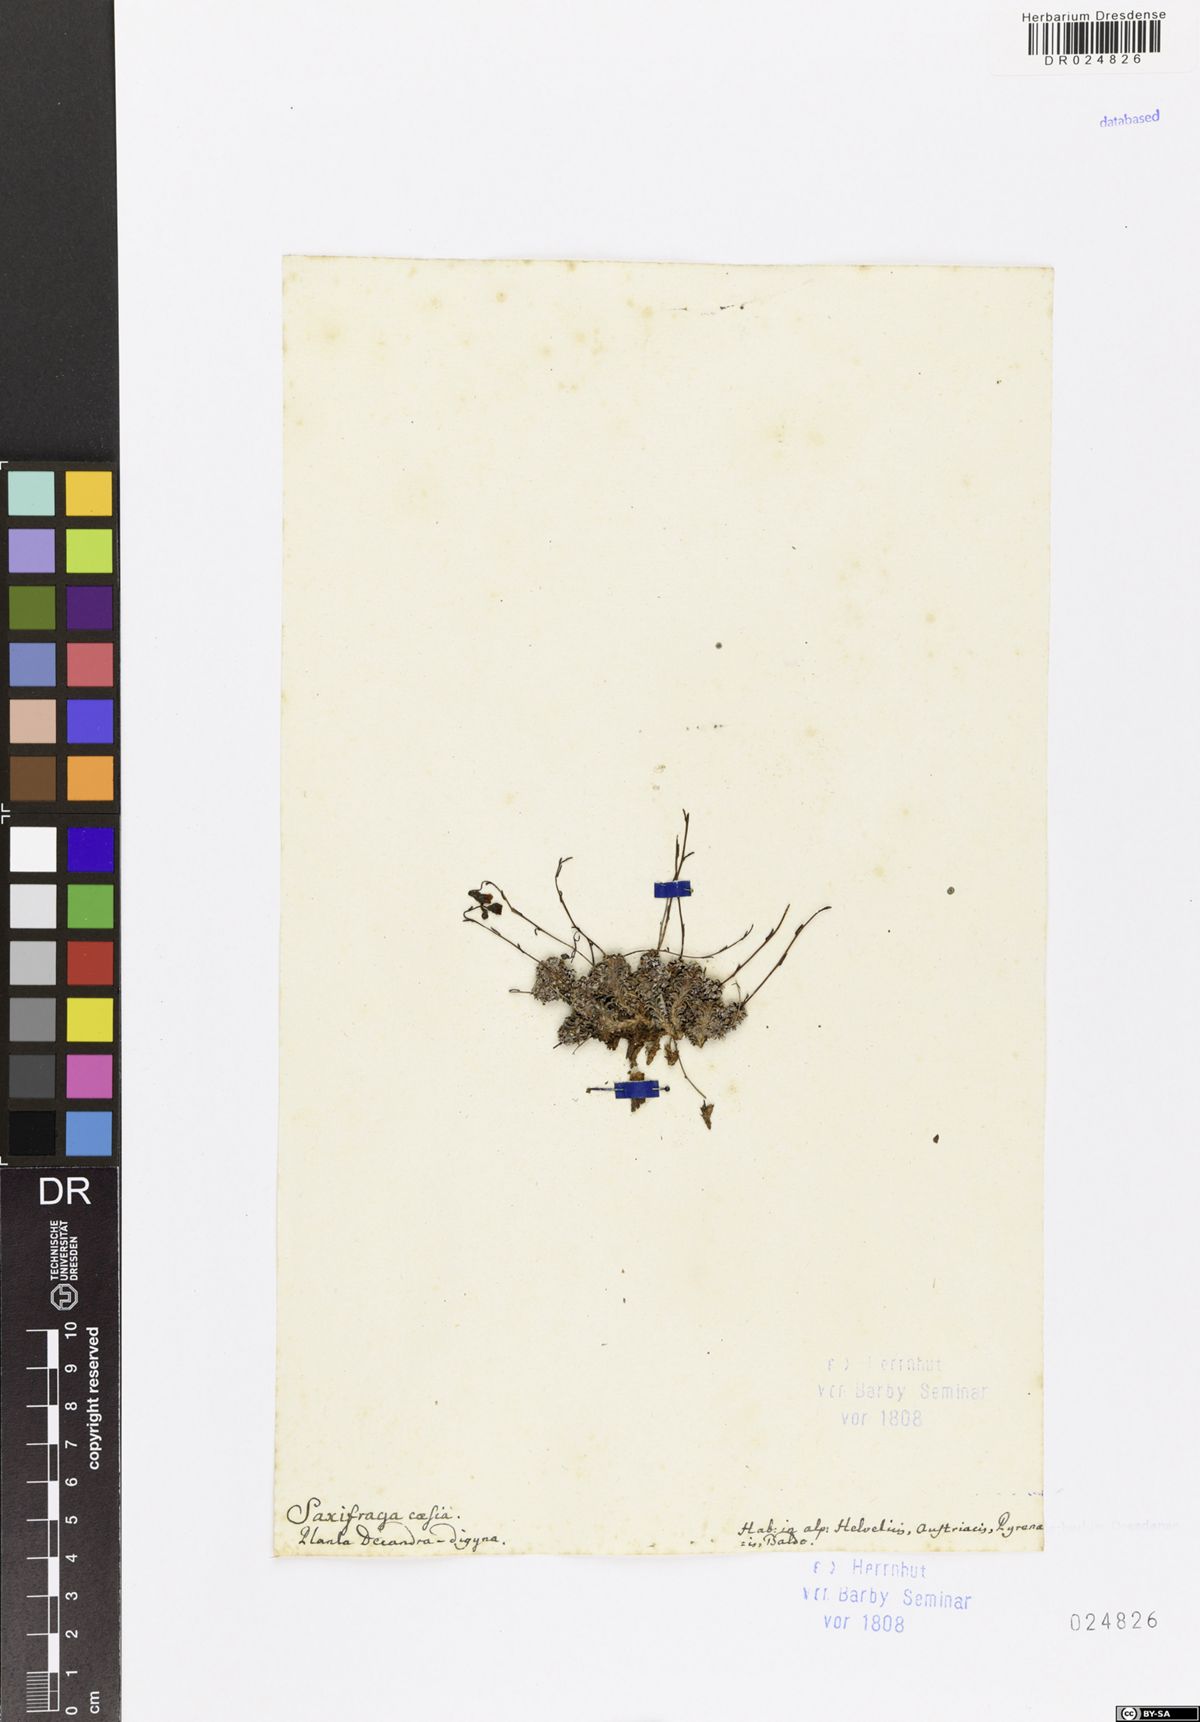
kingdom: Plantae
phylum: Tracheophyta
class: Magnoliopsida
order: Saxifragales
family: Saxifragaceae
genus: Saxifraga
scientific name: Saxifraga caesia
